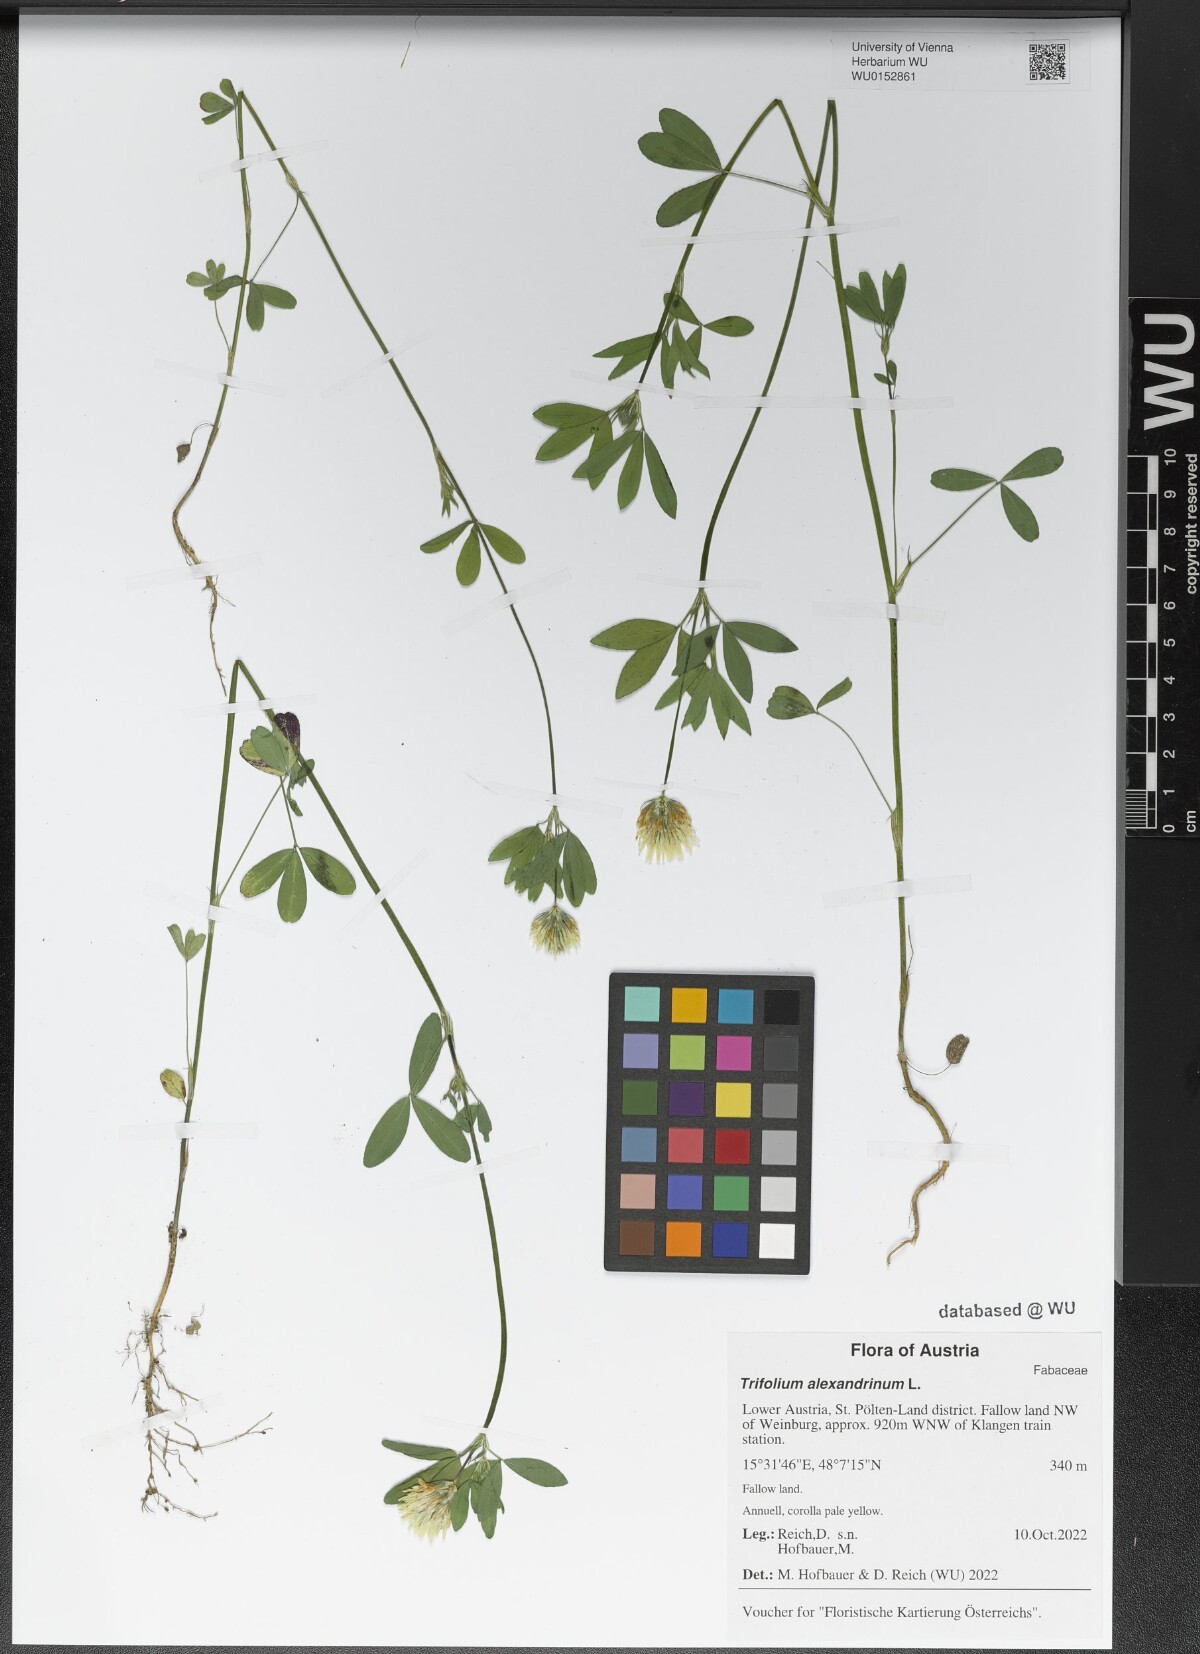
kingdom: Plantae
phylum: Tracheophyta
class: Magnoliopsida
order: Fabales
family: Fabaceae
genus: Trifolium
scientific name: Trifolium alexandrinum
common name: Egyptian clover
